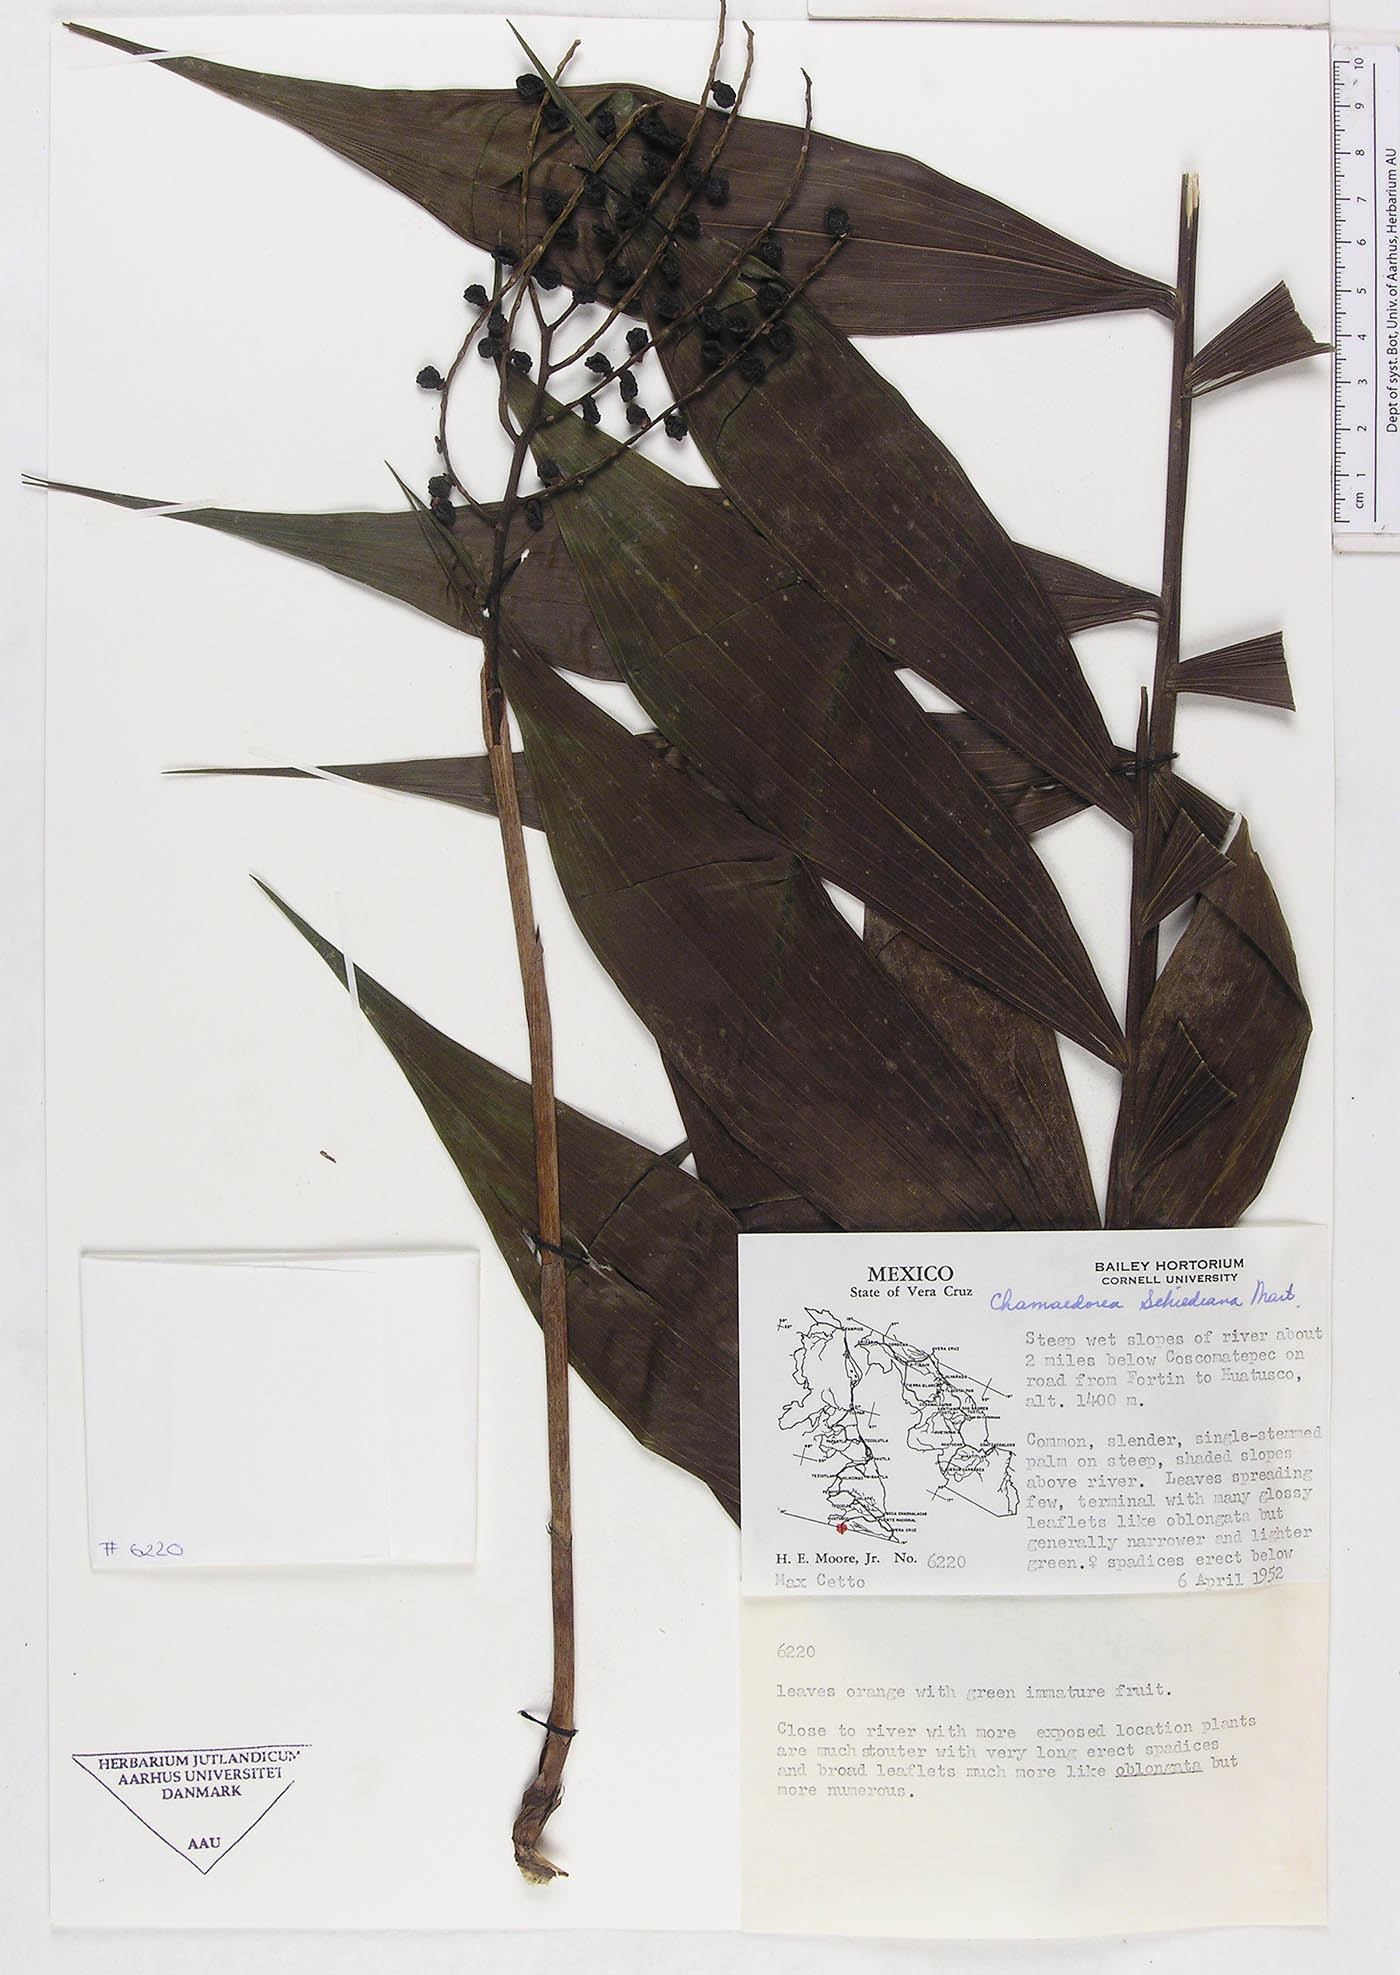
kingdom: Plantae
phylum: Tracheophyta
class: Liliopsida
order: Arecales
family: Arecaceae
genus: Chamaedorea
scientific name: Chamaedorea schiedeana
